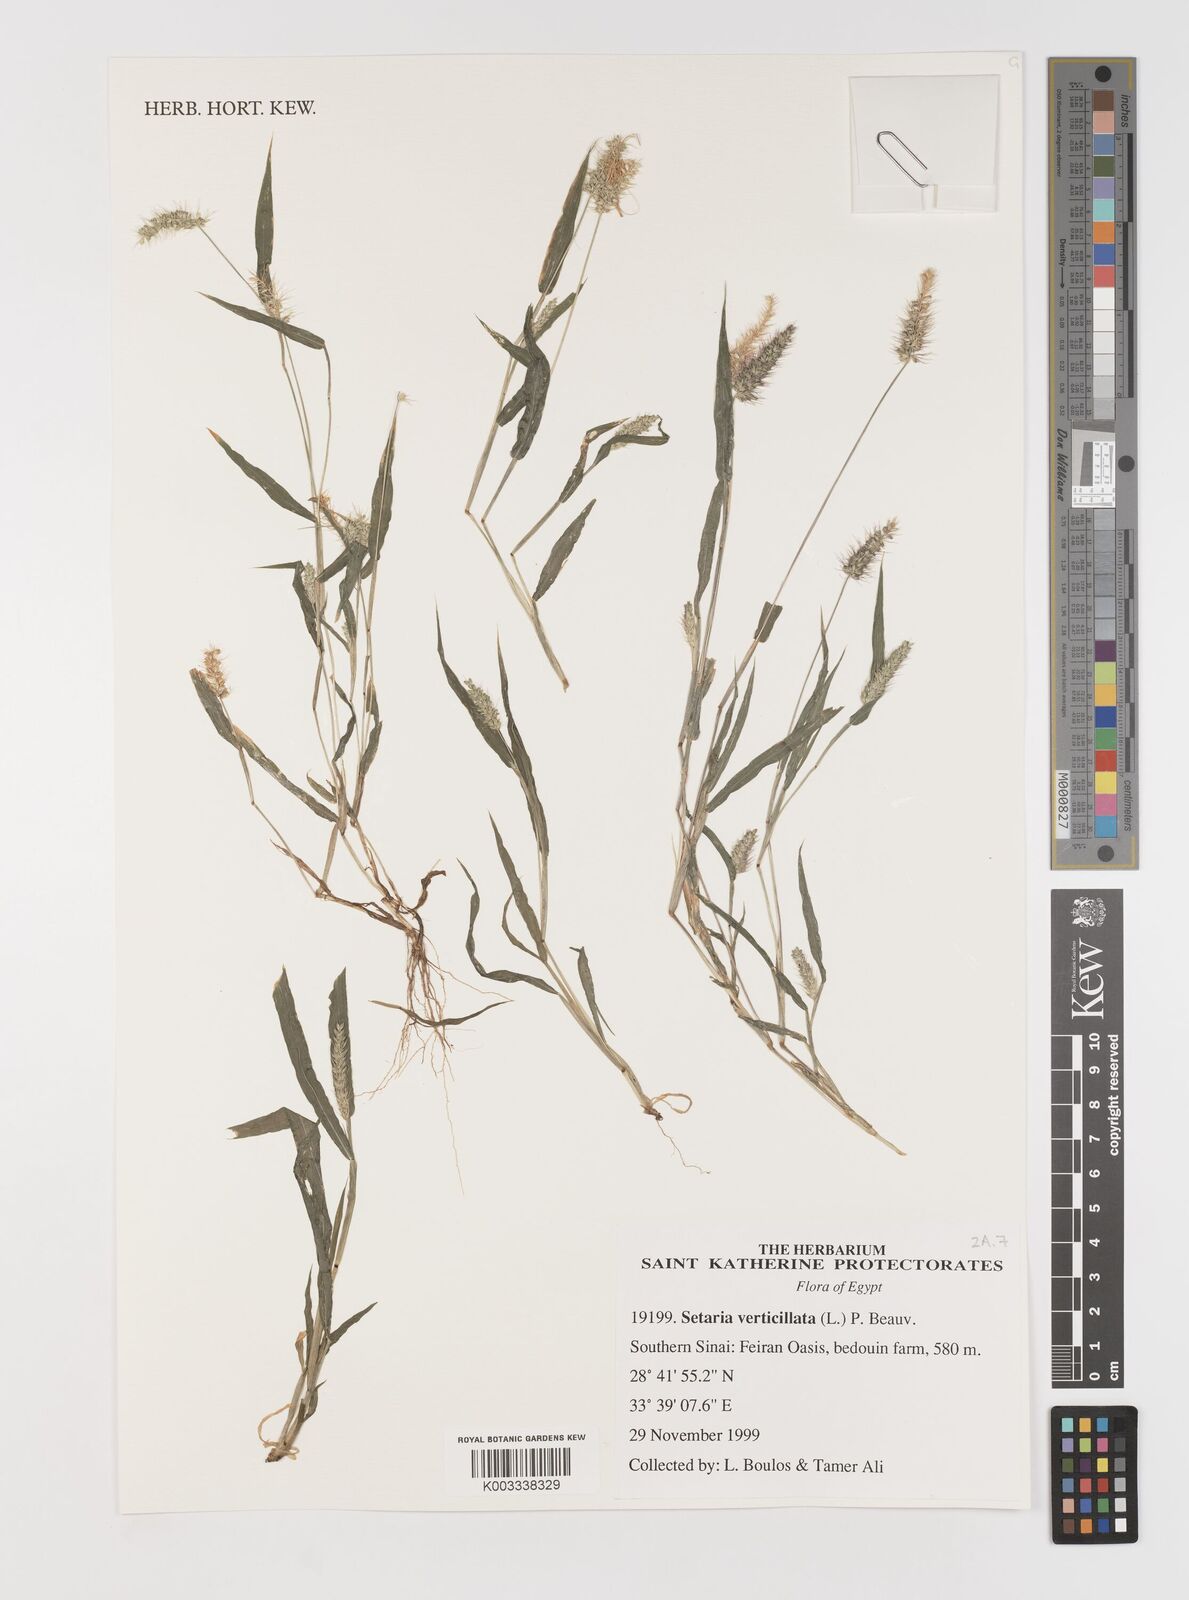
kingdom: Plantae
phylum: Tracheophyta
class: Liliopsida
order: Poales
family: Poaceae
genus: Setaria
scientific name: Setaria verticillata
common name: Hooked bristlegrass
